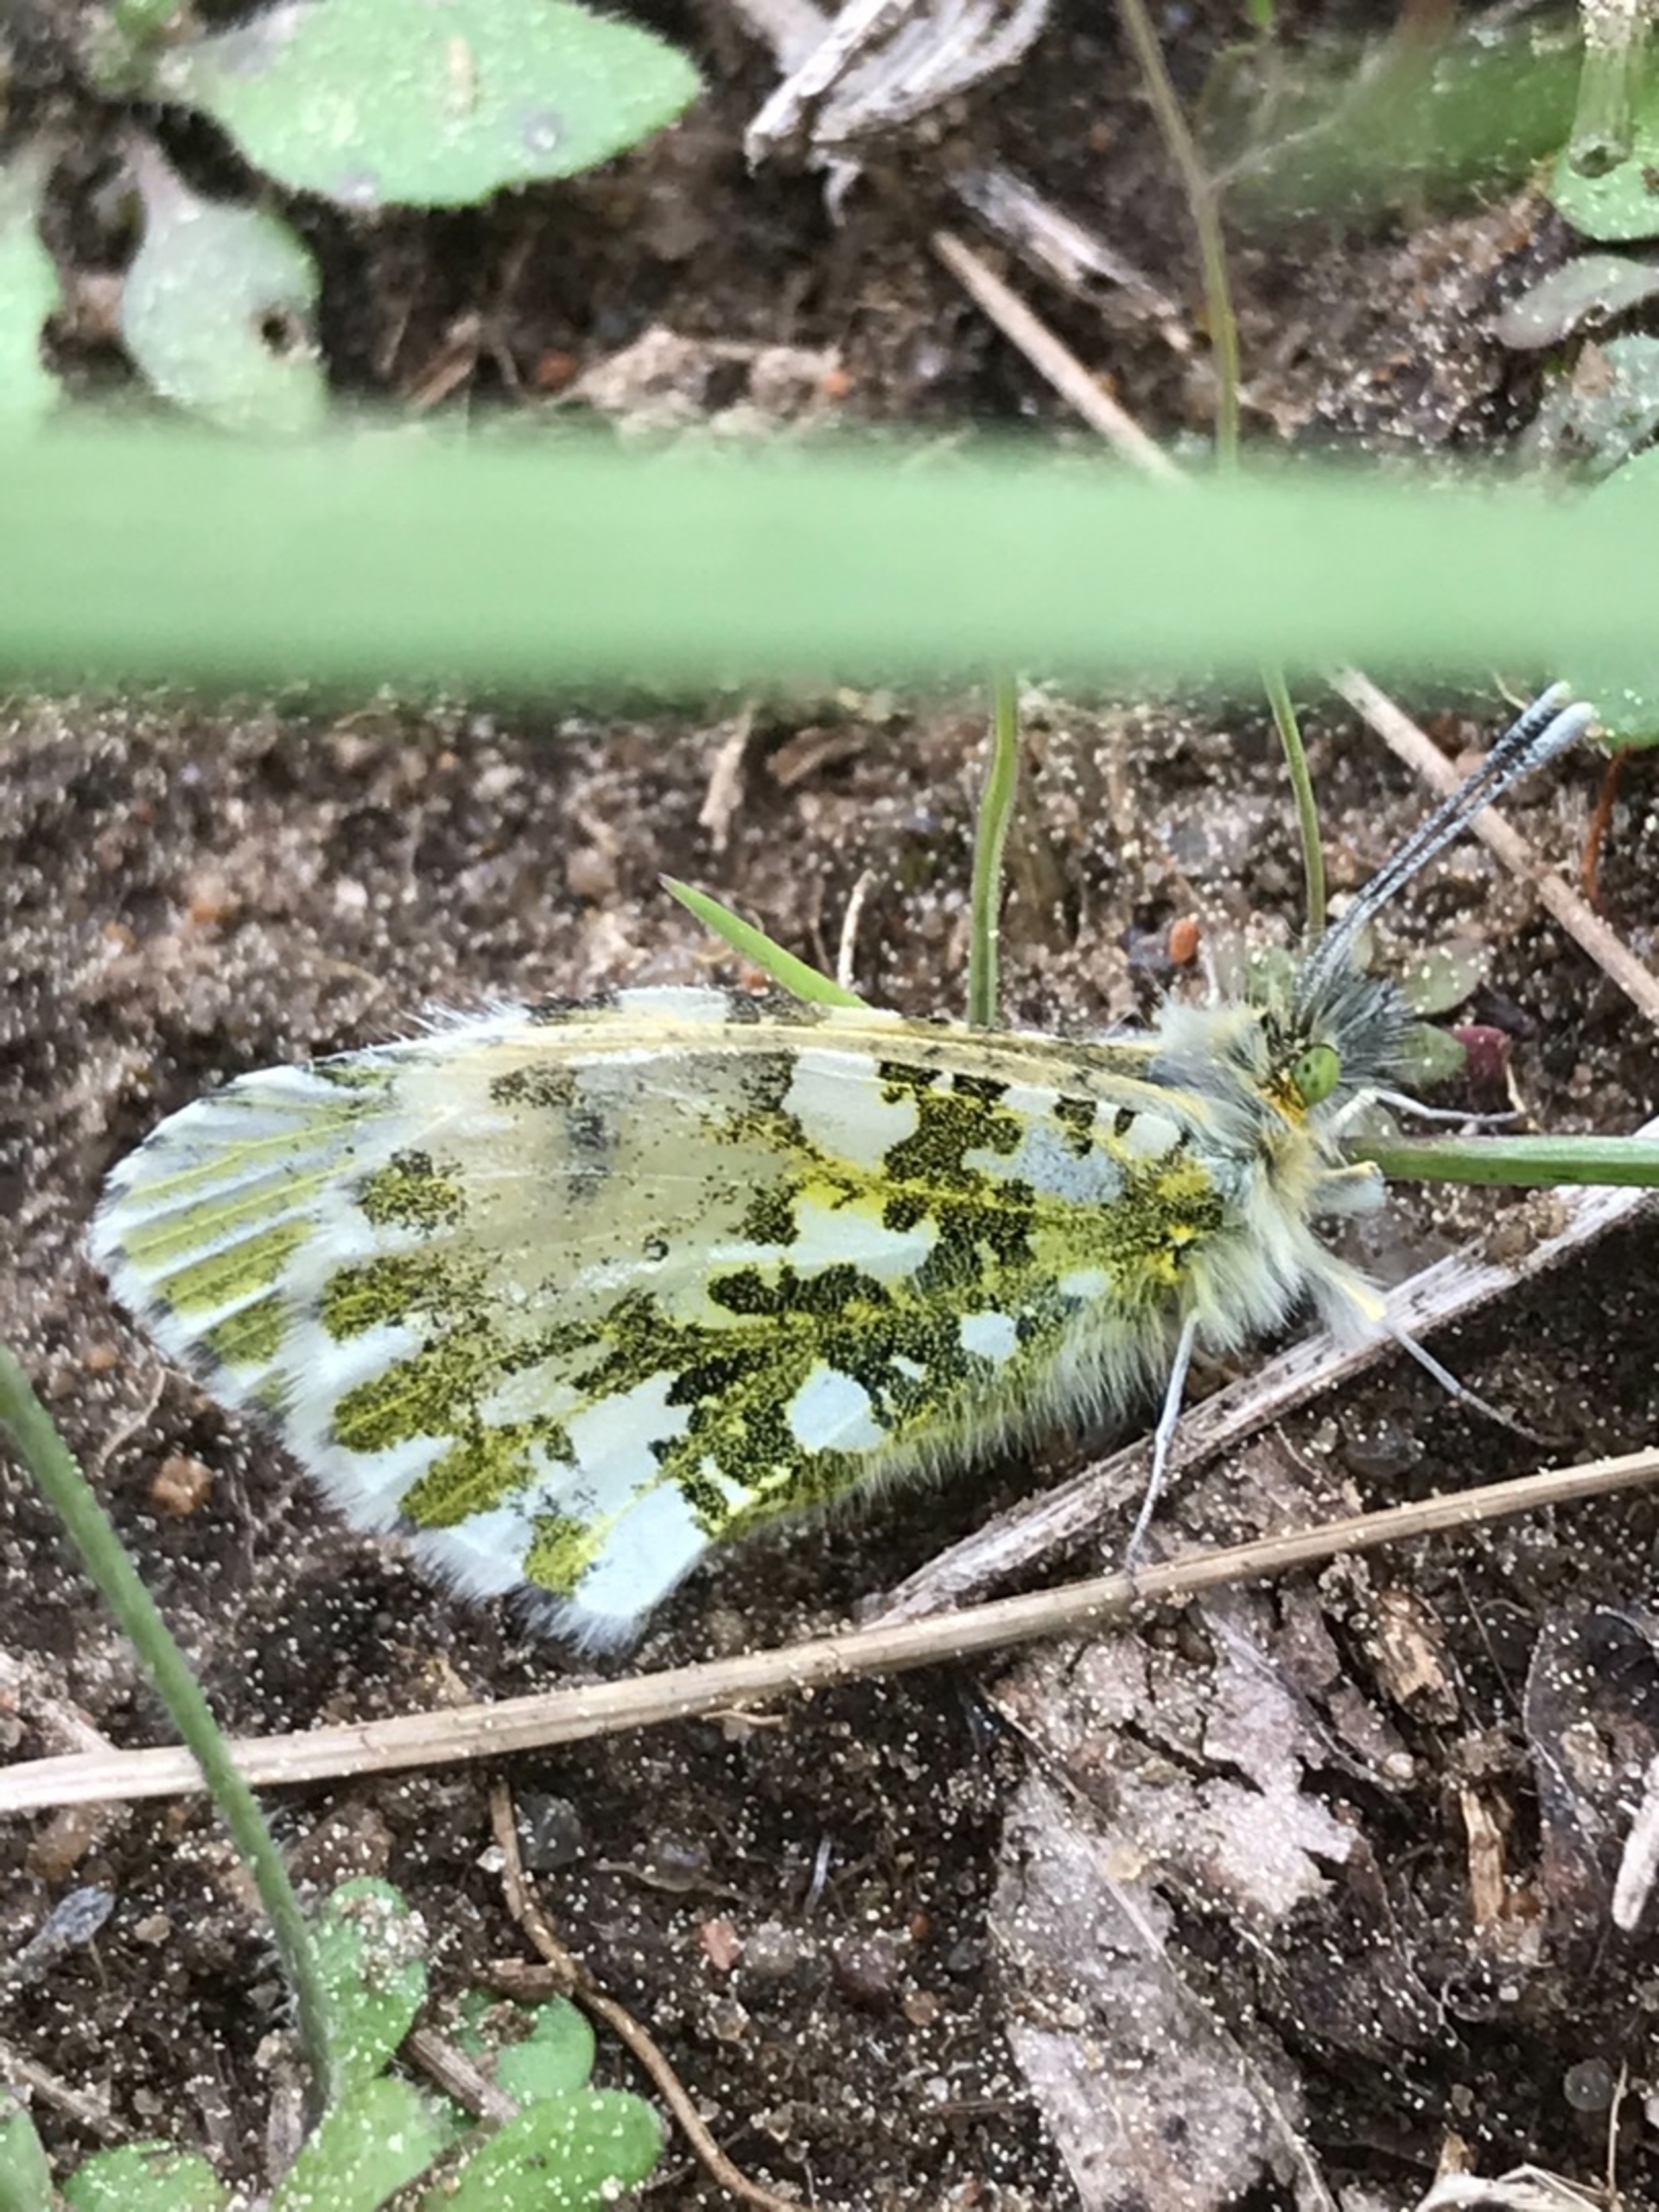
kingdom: Animalia
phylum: Arthropoda
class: Insecta
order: Lepidoptera
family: Pieridae
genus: Anthocharis
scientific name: Anthocharis cardamines
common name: Aurora
